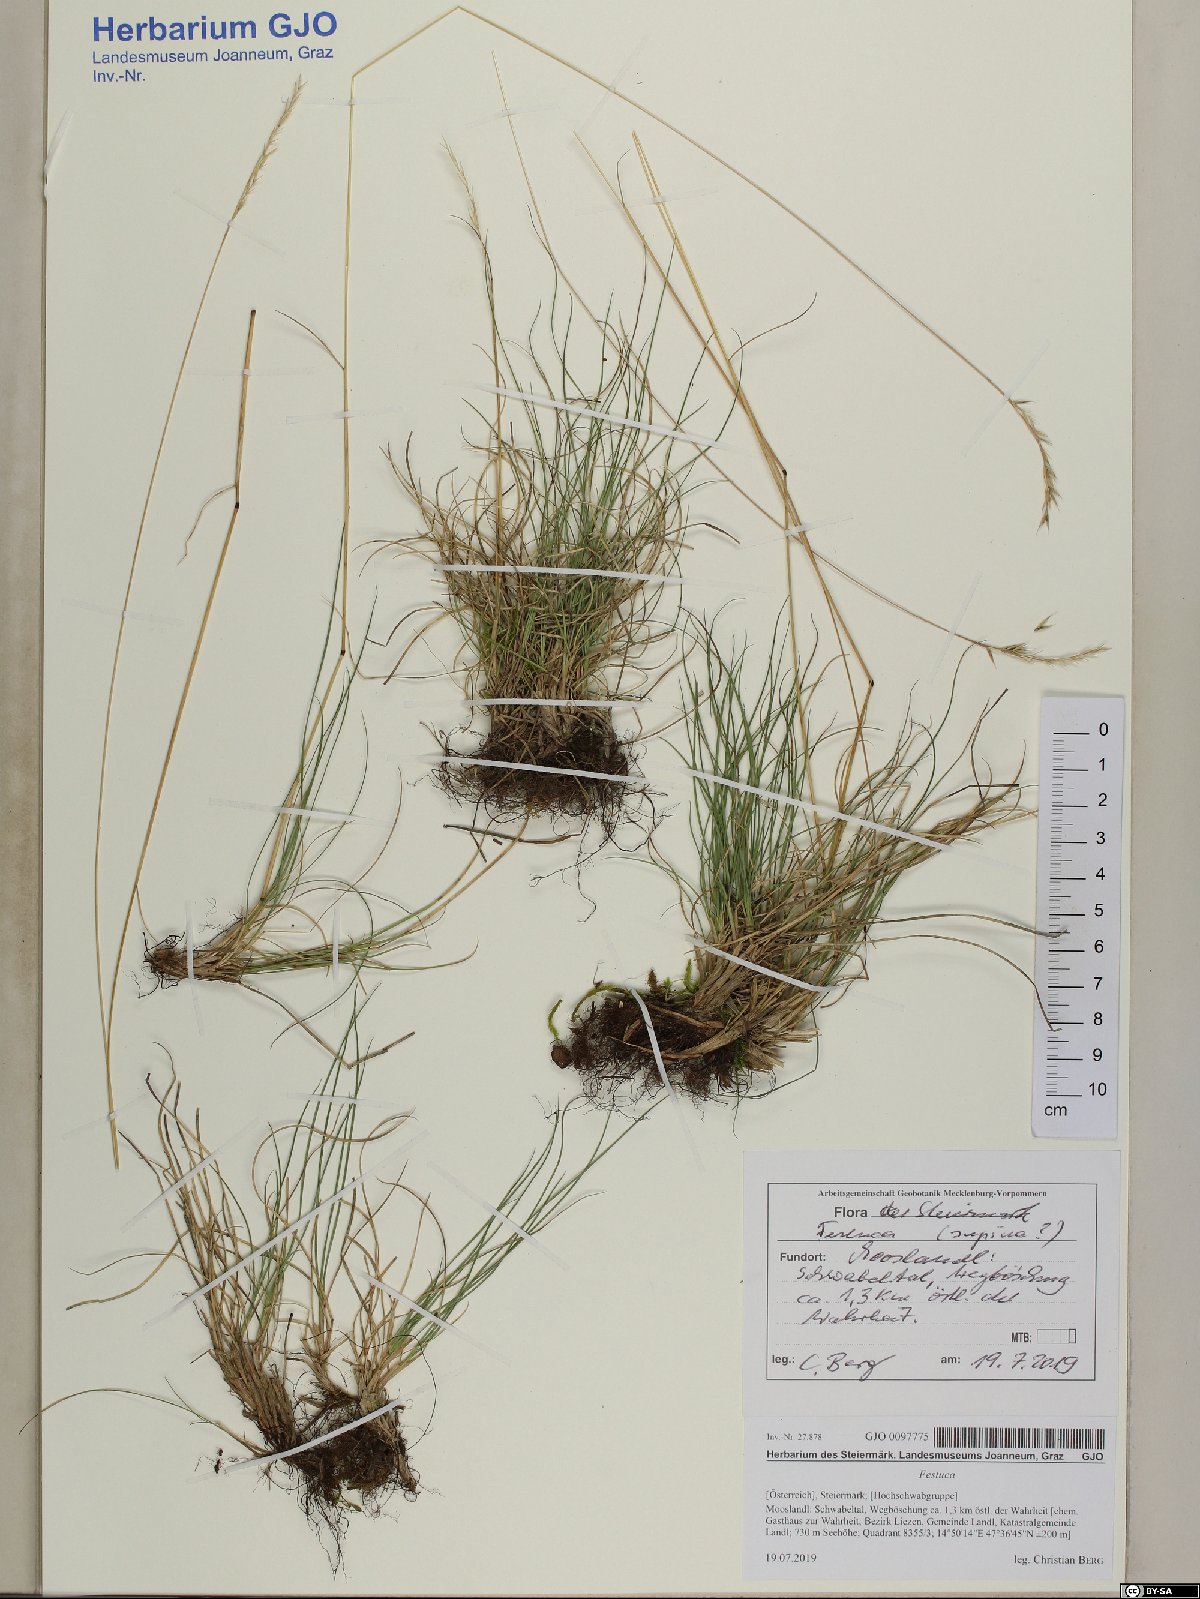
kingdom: Plantae
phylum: Tracheophyta
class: Liliopsida
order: Poales
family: Poaceae
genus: Festuca
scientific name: Festuca trachyphylla
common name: Hard fescue
